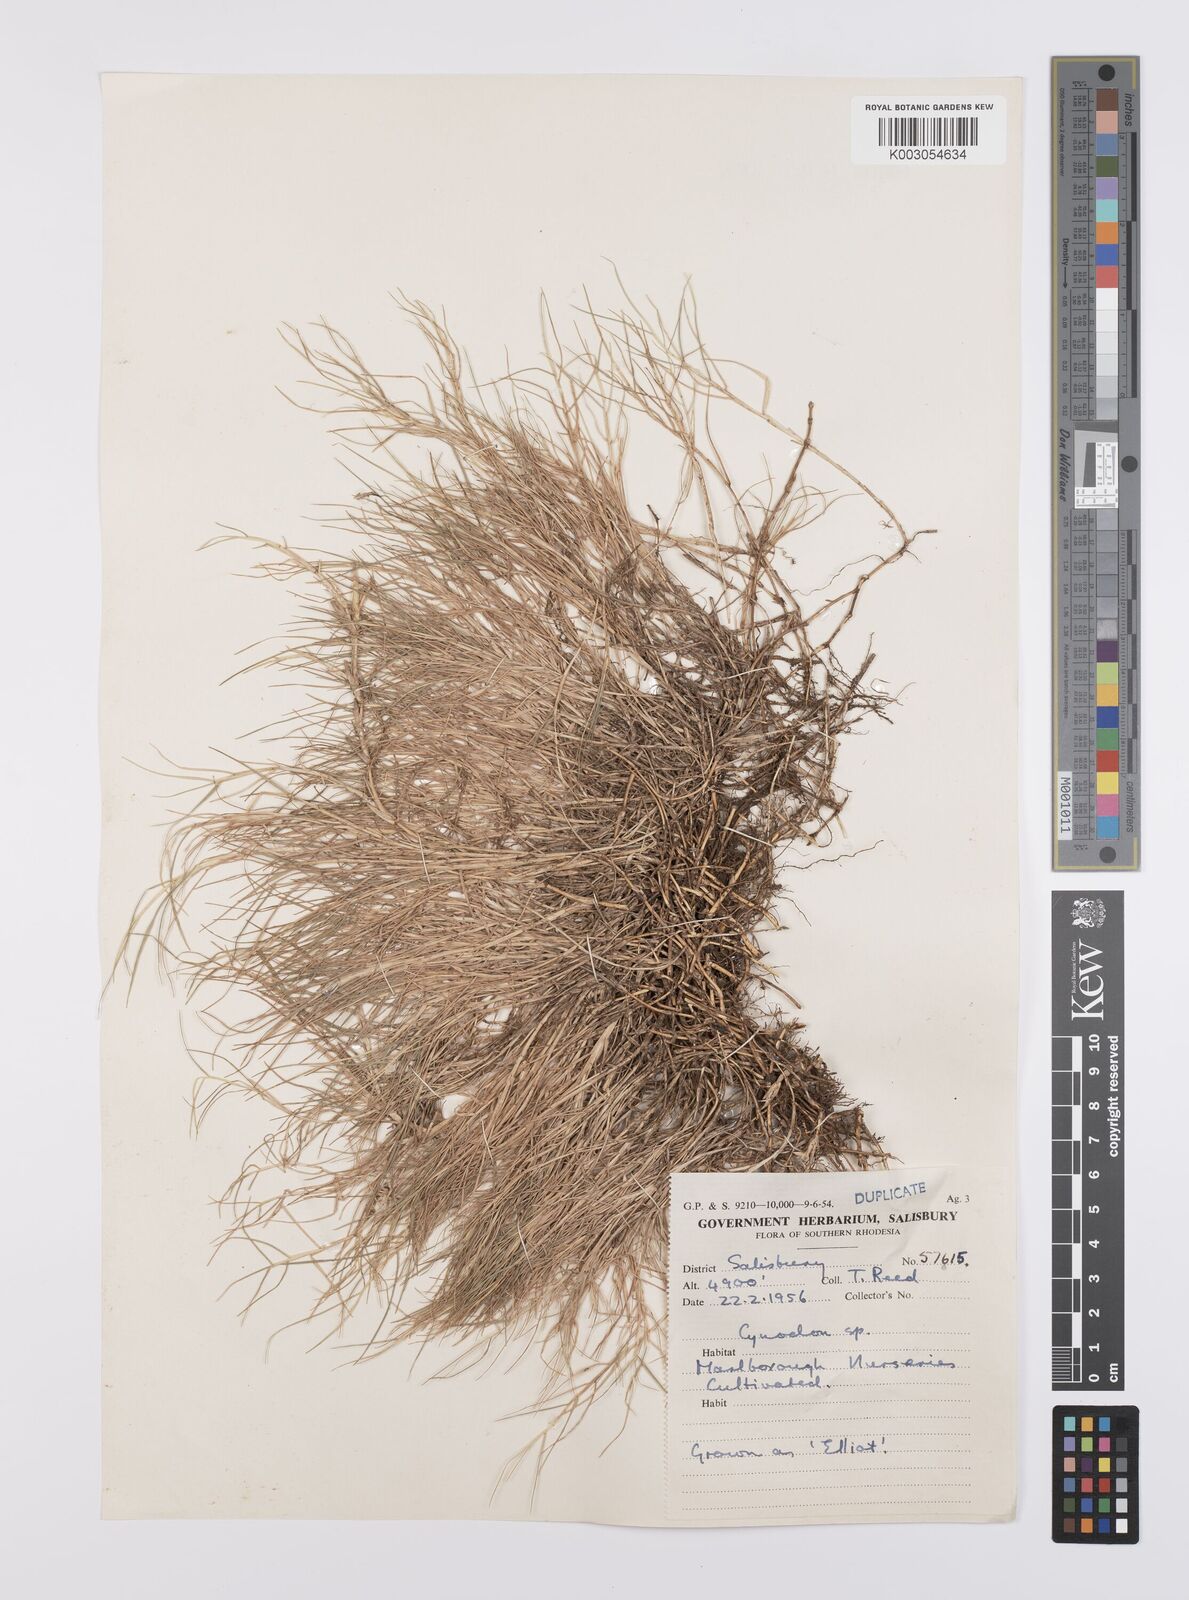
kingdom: Plantae
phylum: Tracheophyta
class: Liliopsida
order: Poales
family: Poaceae
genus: Cynodon
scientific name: Cynodon dactylon
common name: Bermuda grass
